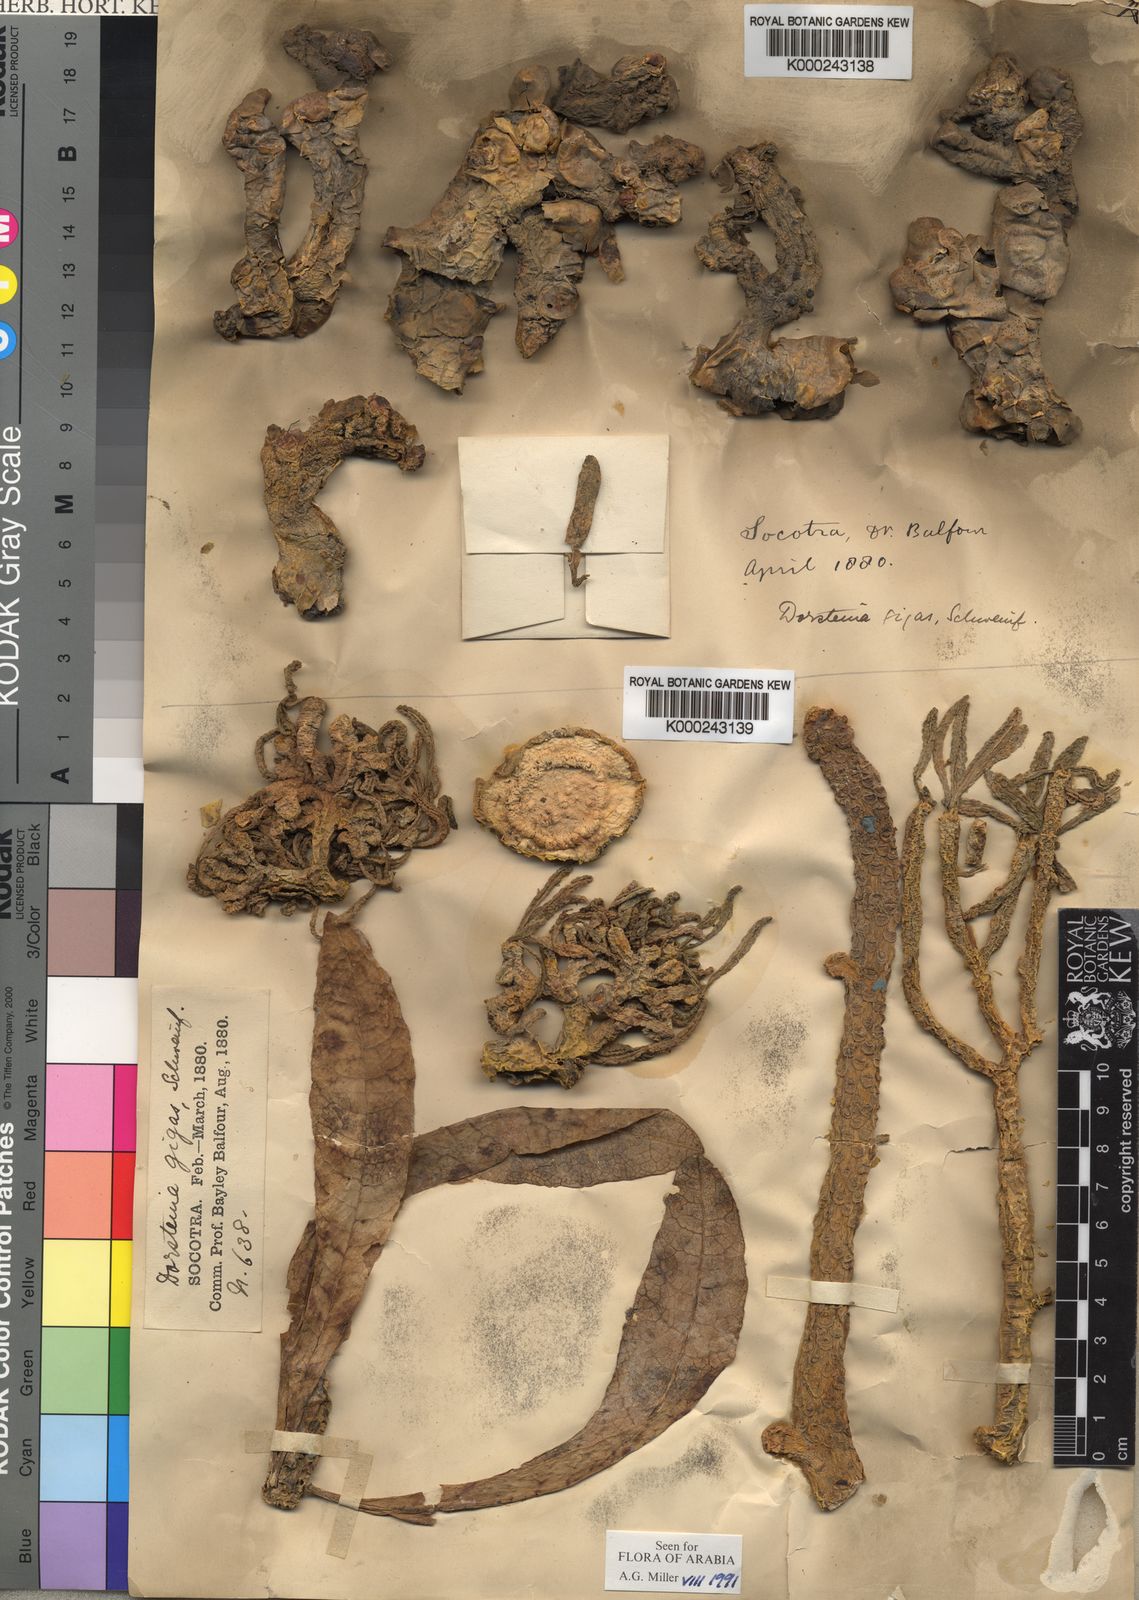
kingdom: Plantae
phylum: Tracheophyta
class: Magnoliopsida
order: Rosales
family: Moraceae
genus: Dorstenia
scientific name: Dorstenia
